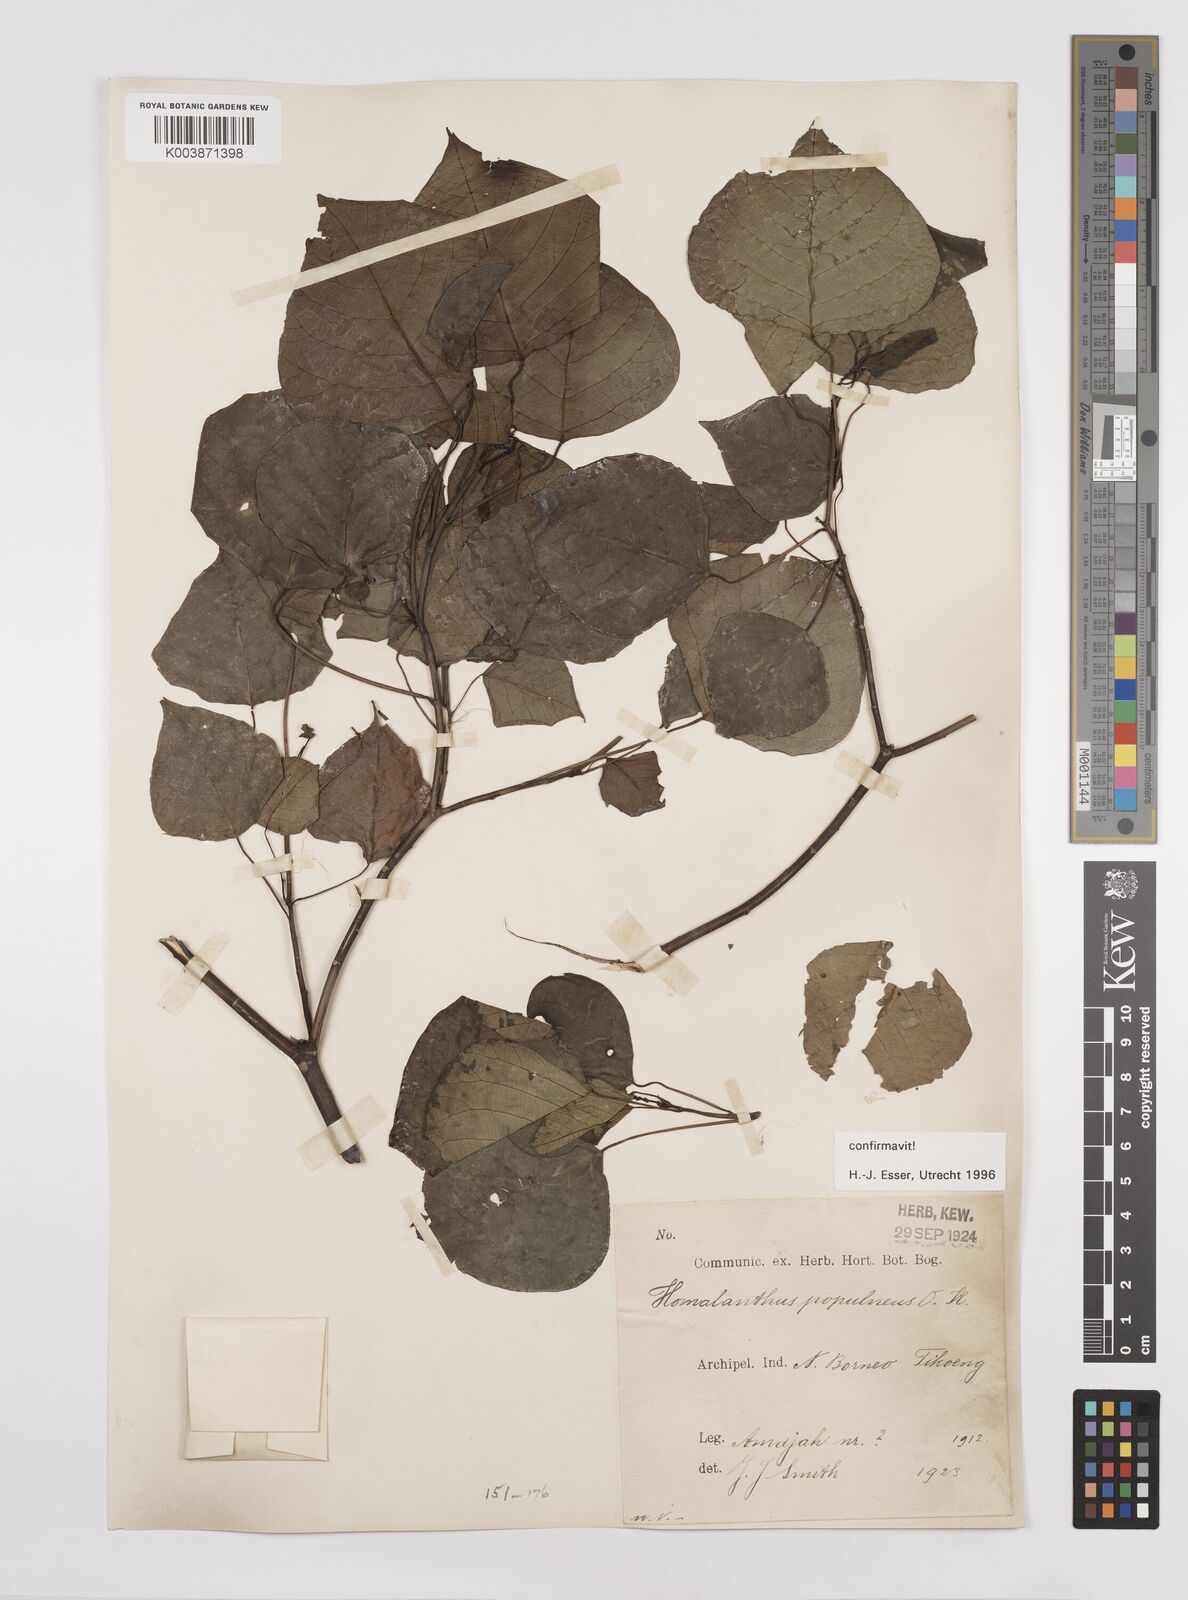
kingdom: Plantae
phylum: Tracheophyta
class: Magnoliopsida
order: Malpighiales
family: Euphorbiaceae
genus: Homalanthus
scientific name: Homalanthus populneus
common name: Spurge
